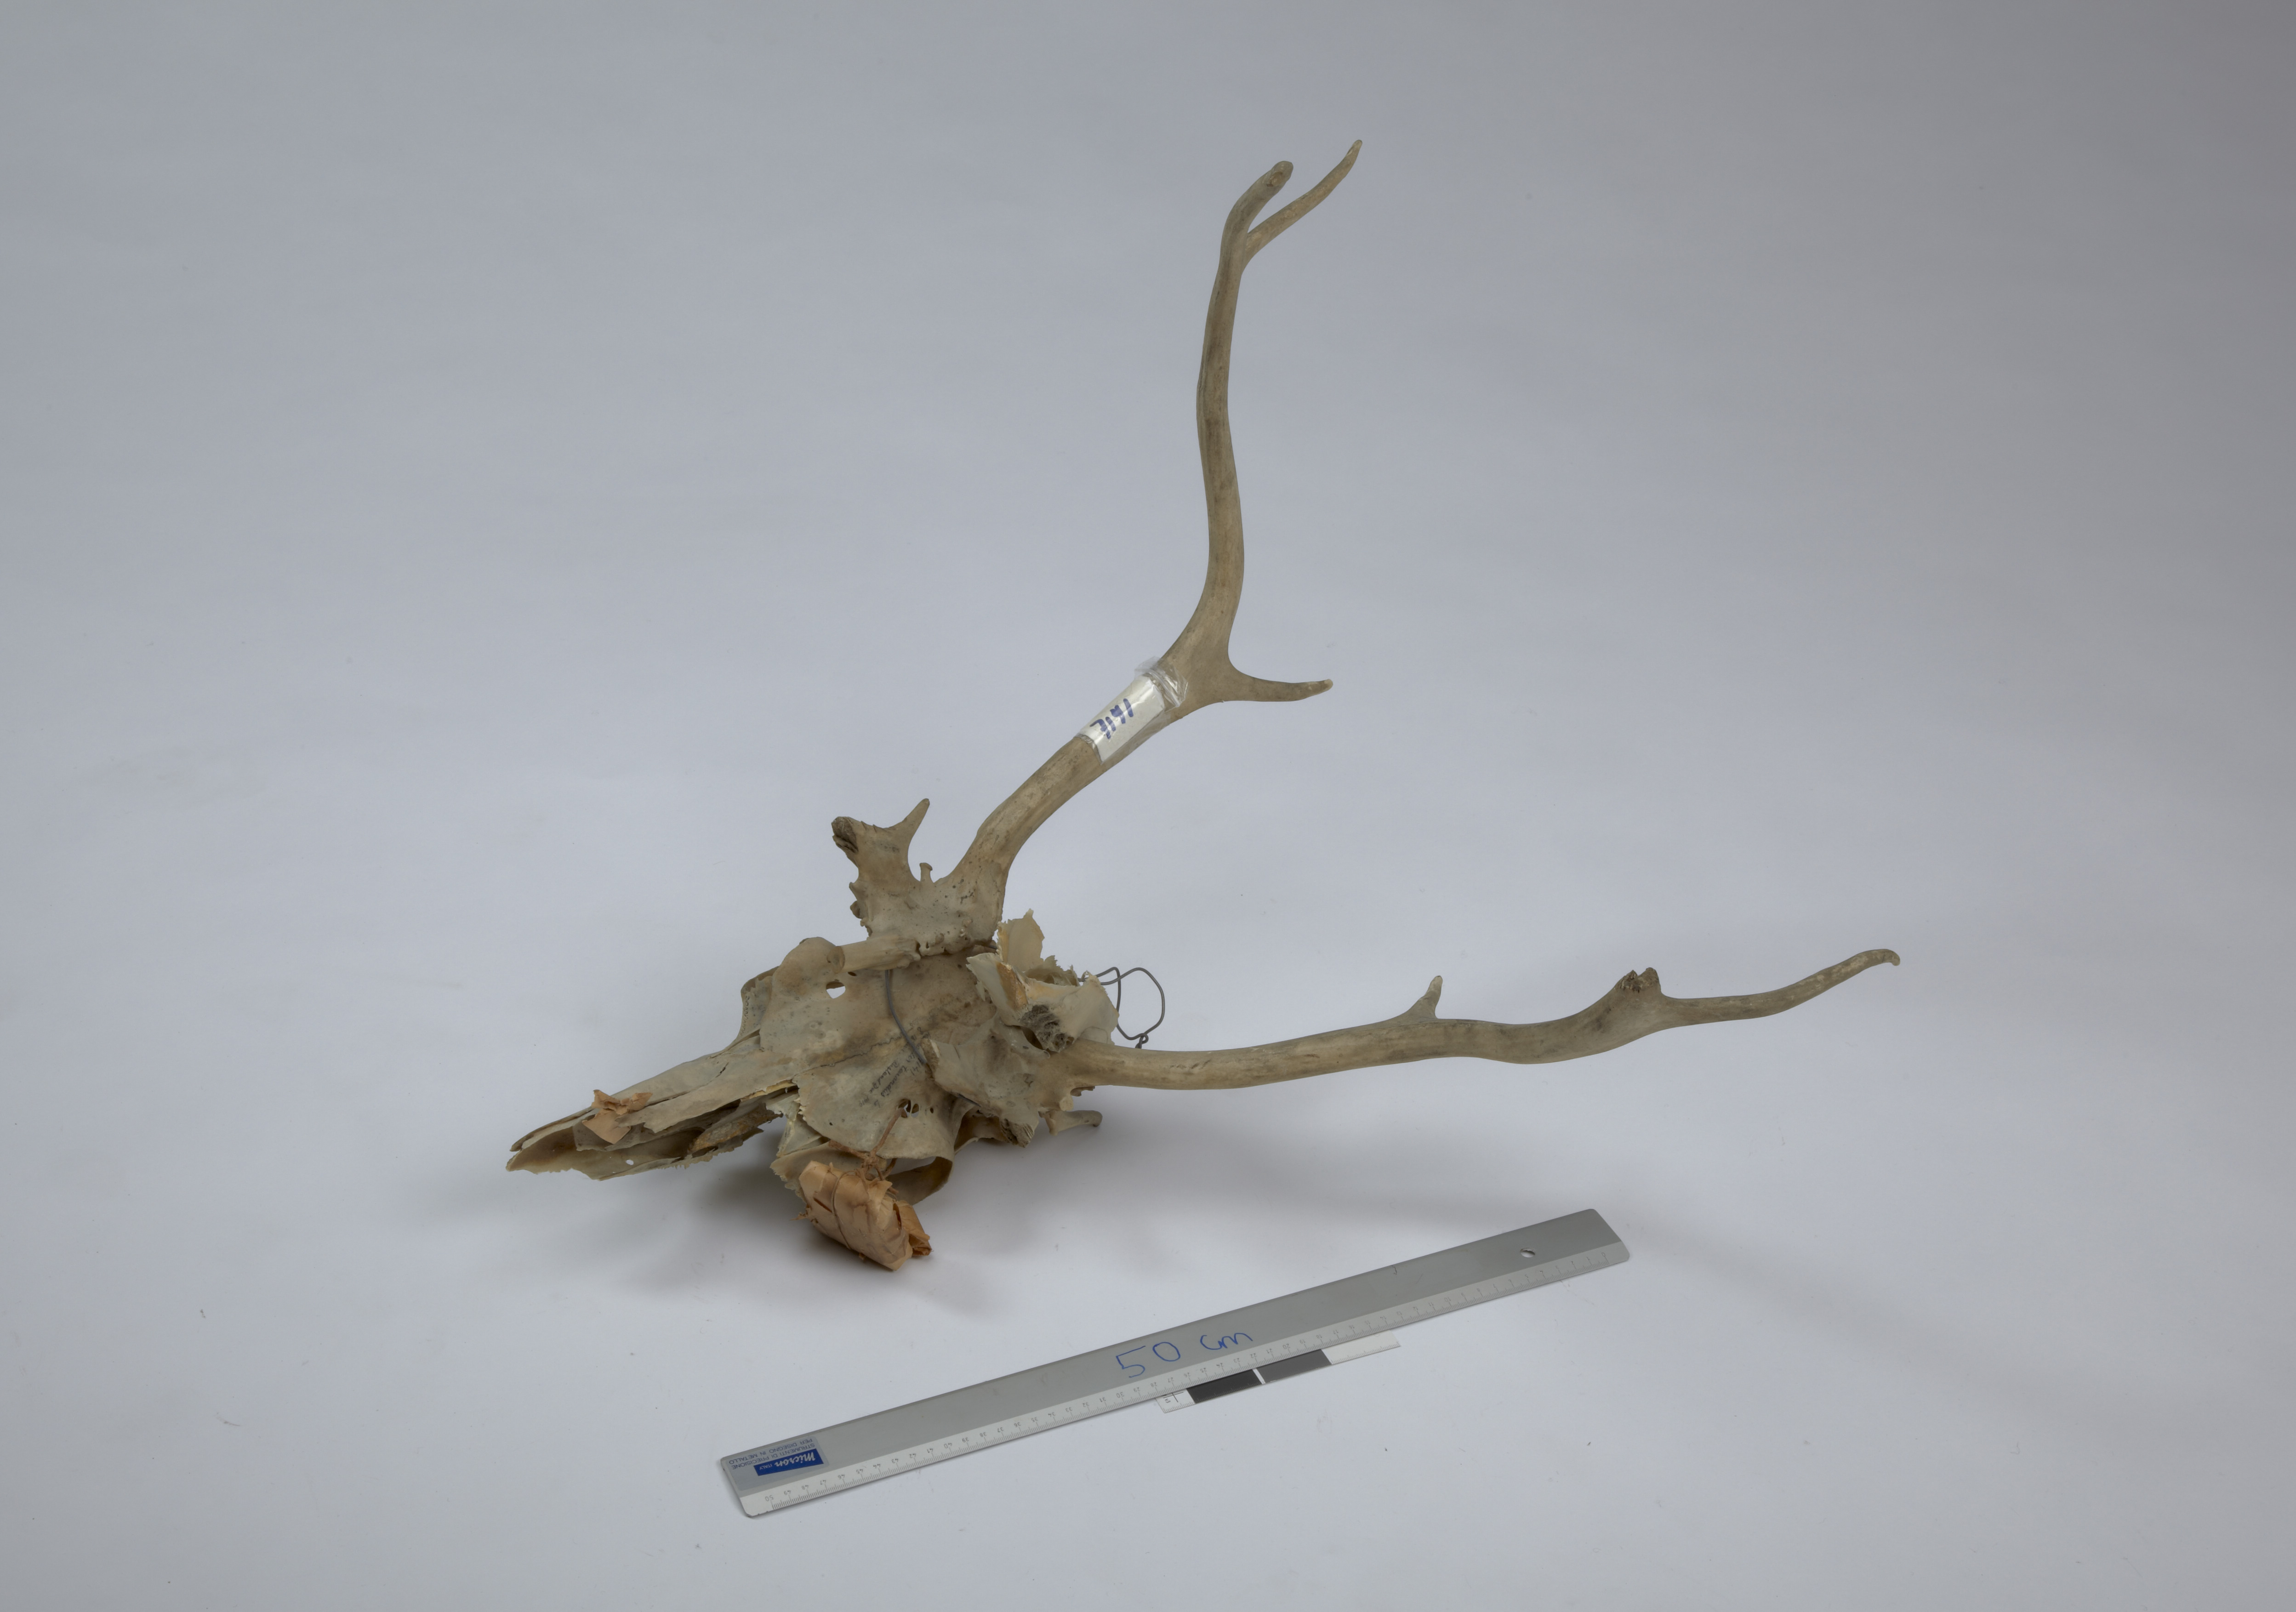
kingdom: Animalia
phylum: Chordata
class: Mammalia
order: Artiodactyla
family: Cervidae
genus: Rangifer
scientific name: Rangifer tarandus
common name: Reindeer
